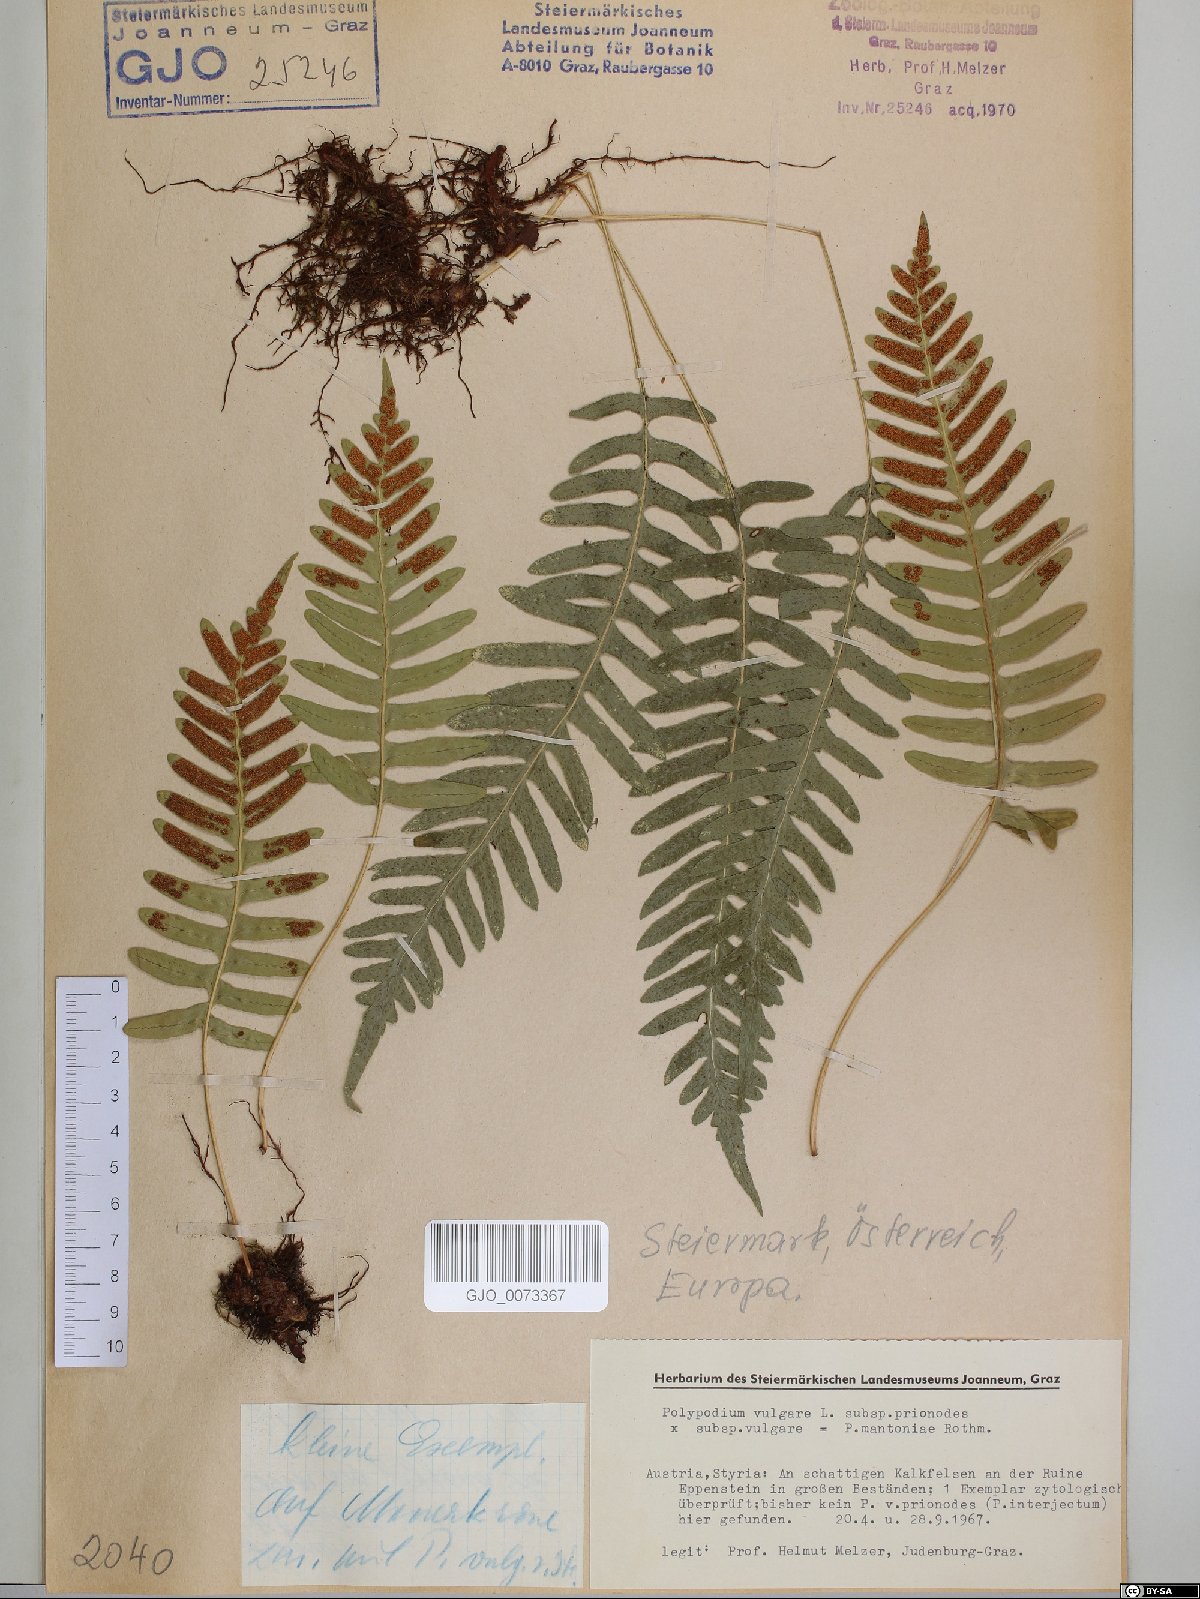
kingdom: Plantae
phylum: Tracheophyta
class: Polypodiopsida
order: Polypodiales
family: Polypodiaceae
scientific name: Polypodiaceae
